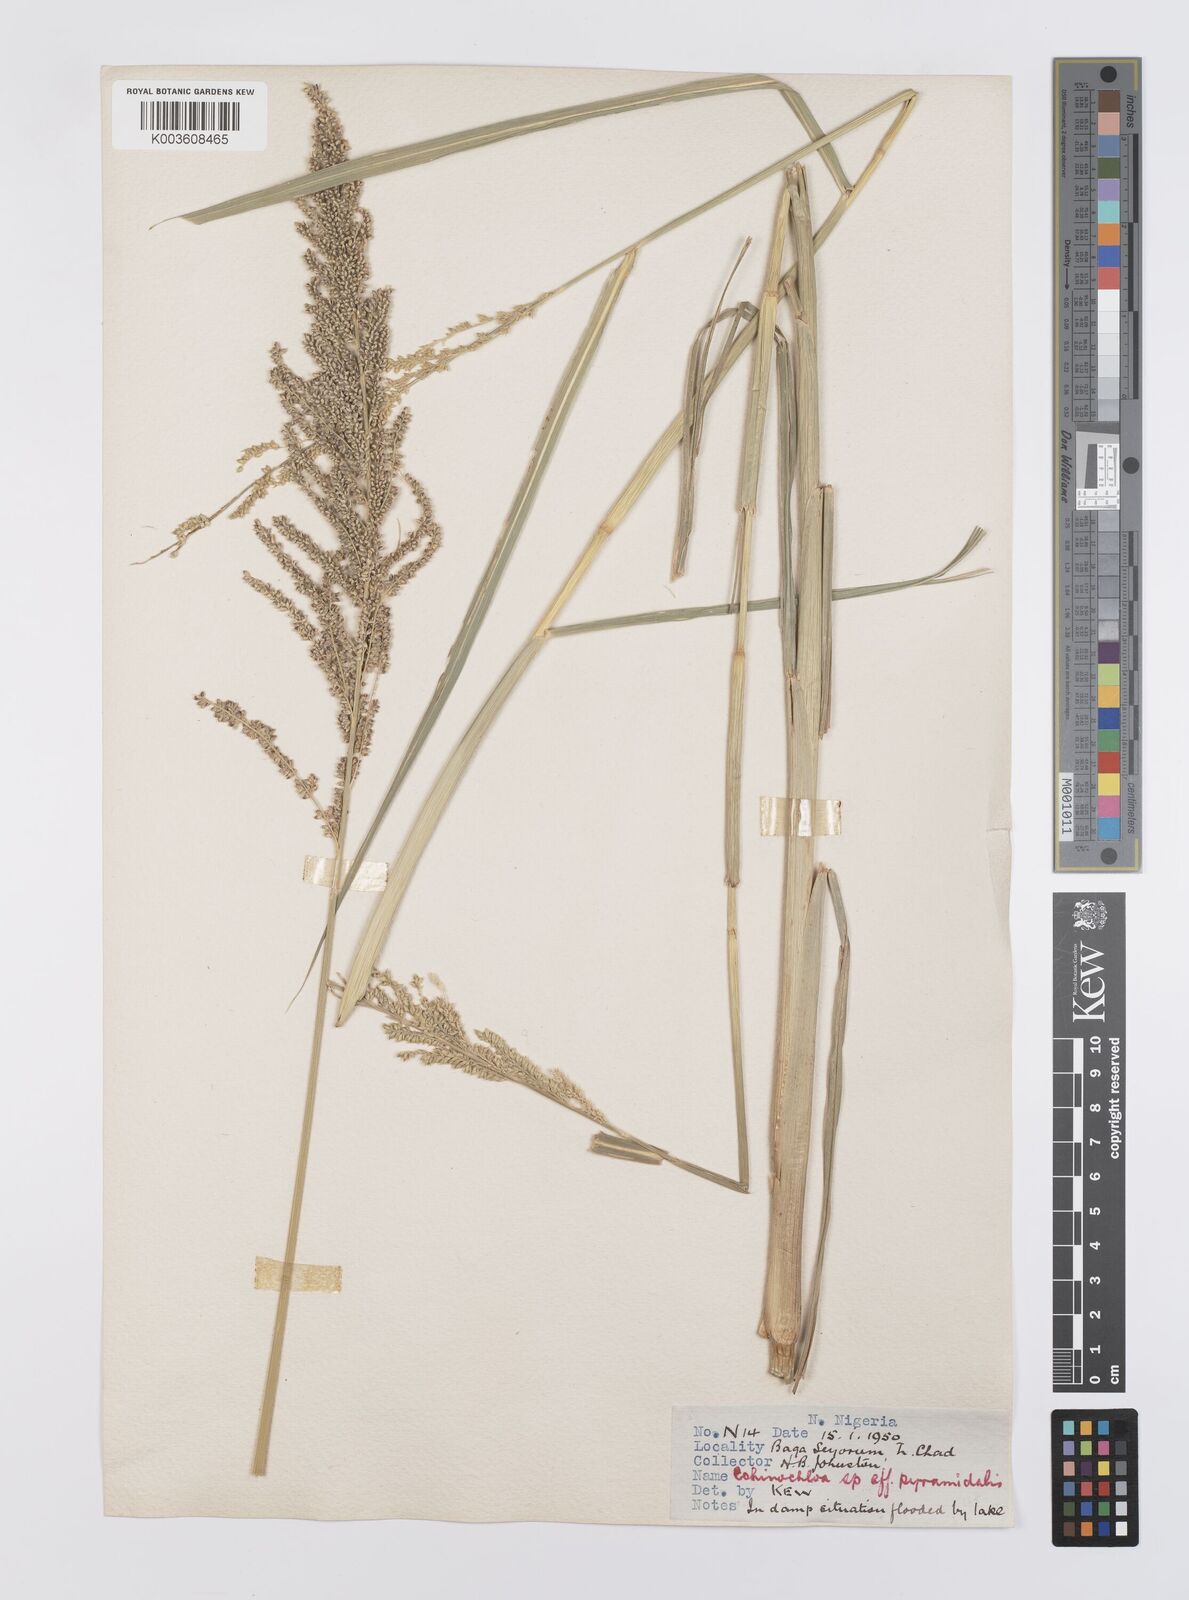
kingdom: Plantae
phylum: Tracheophyta
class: Liliopsida
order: Poales
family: Poaceae
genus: Echinochloa
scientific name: Echinochloa pyramidalis
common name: Antelope grass
